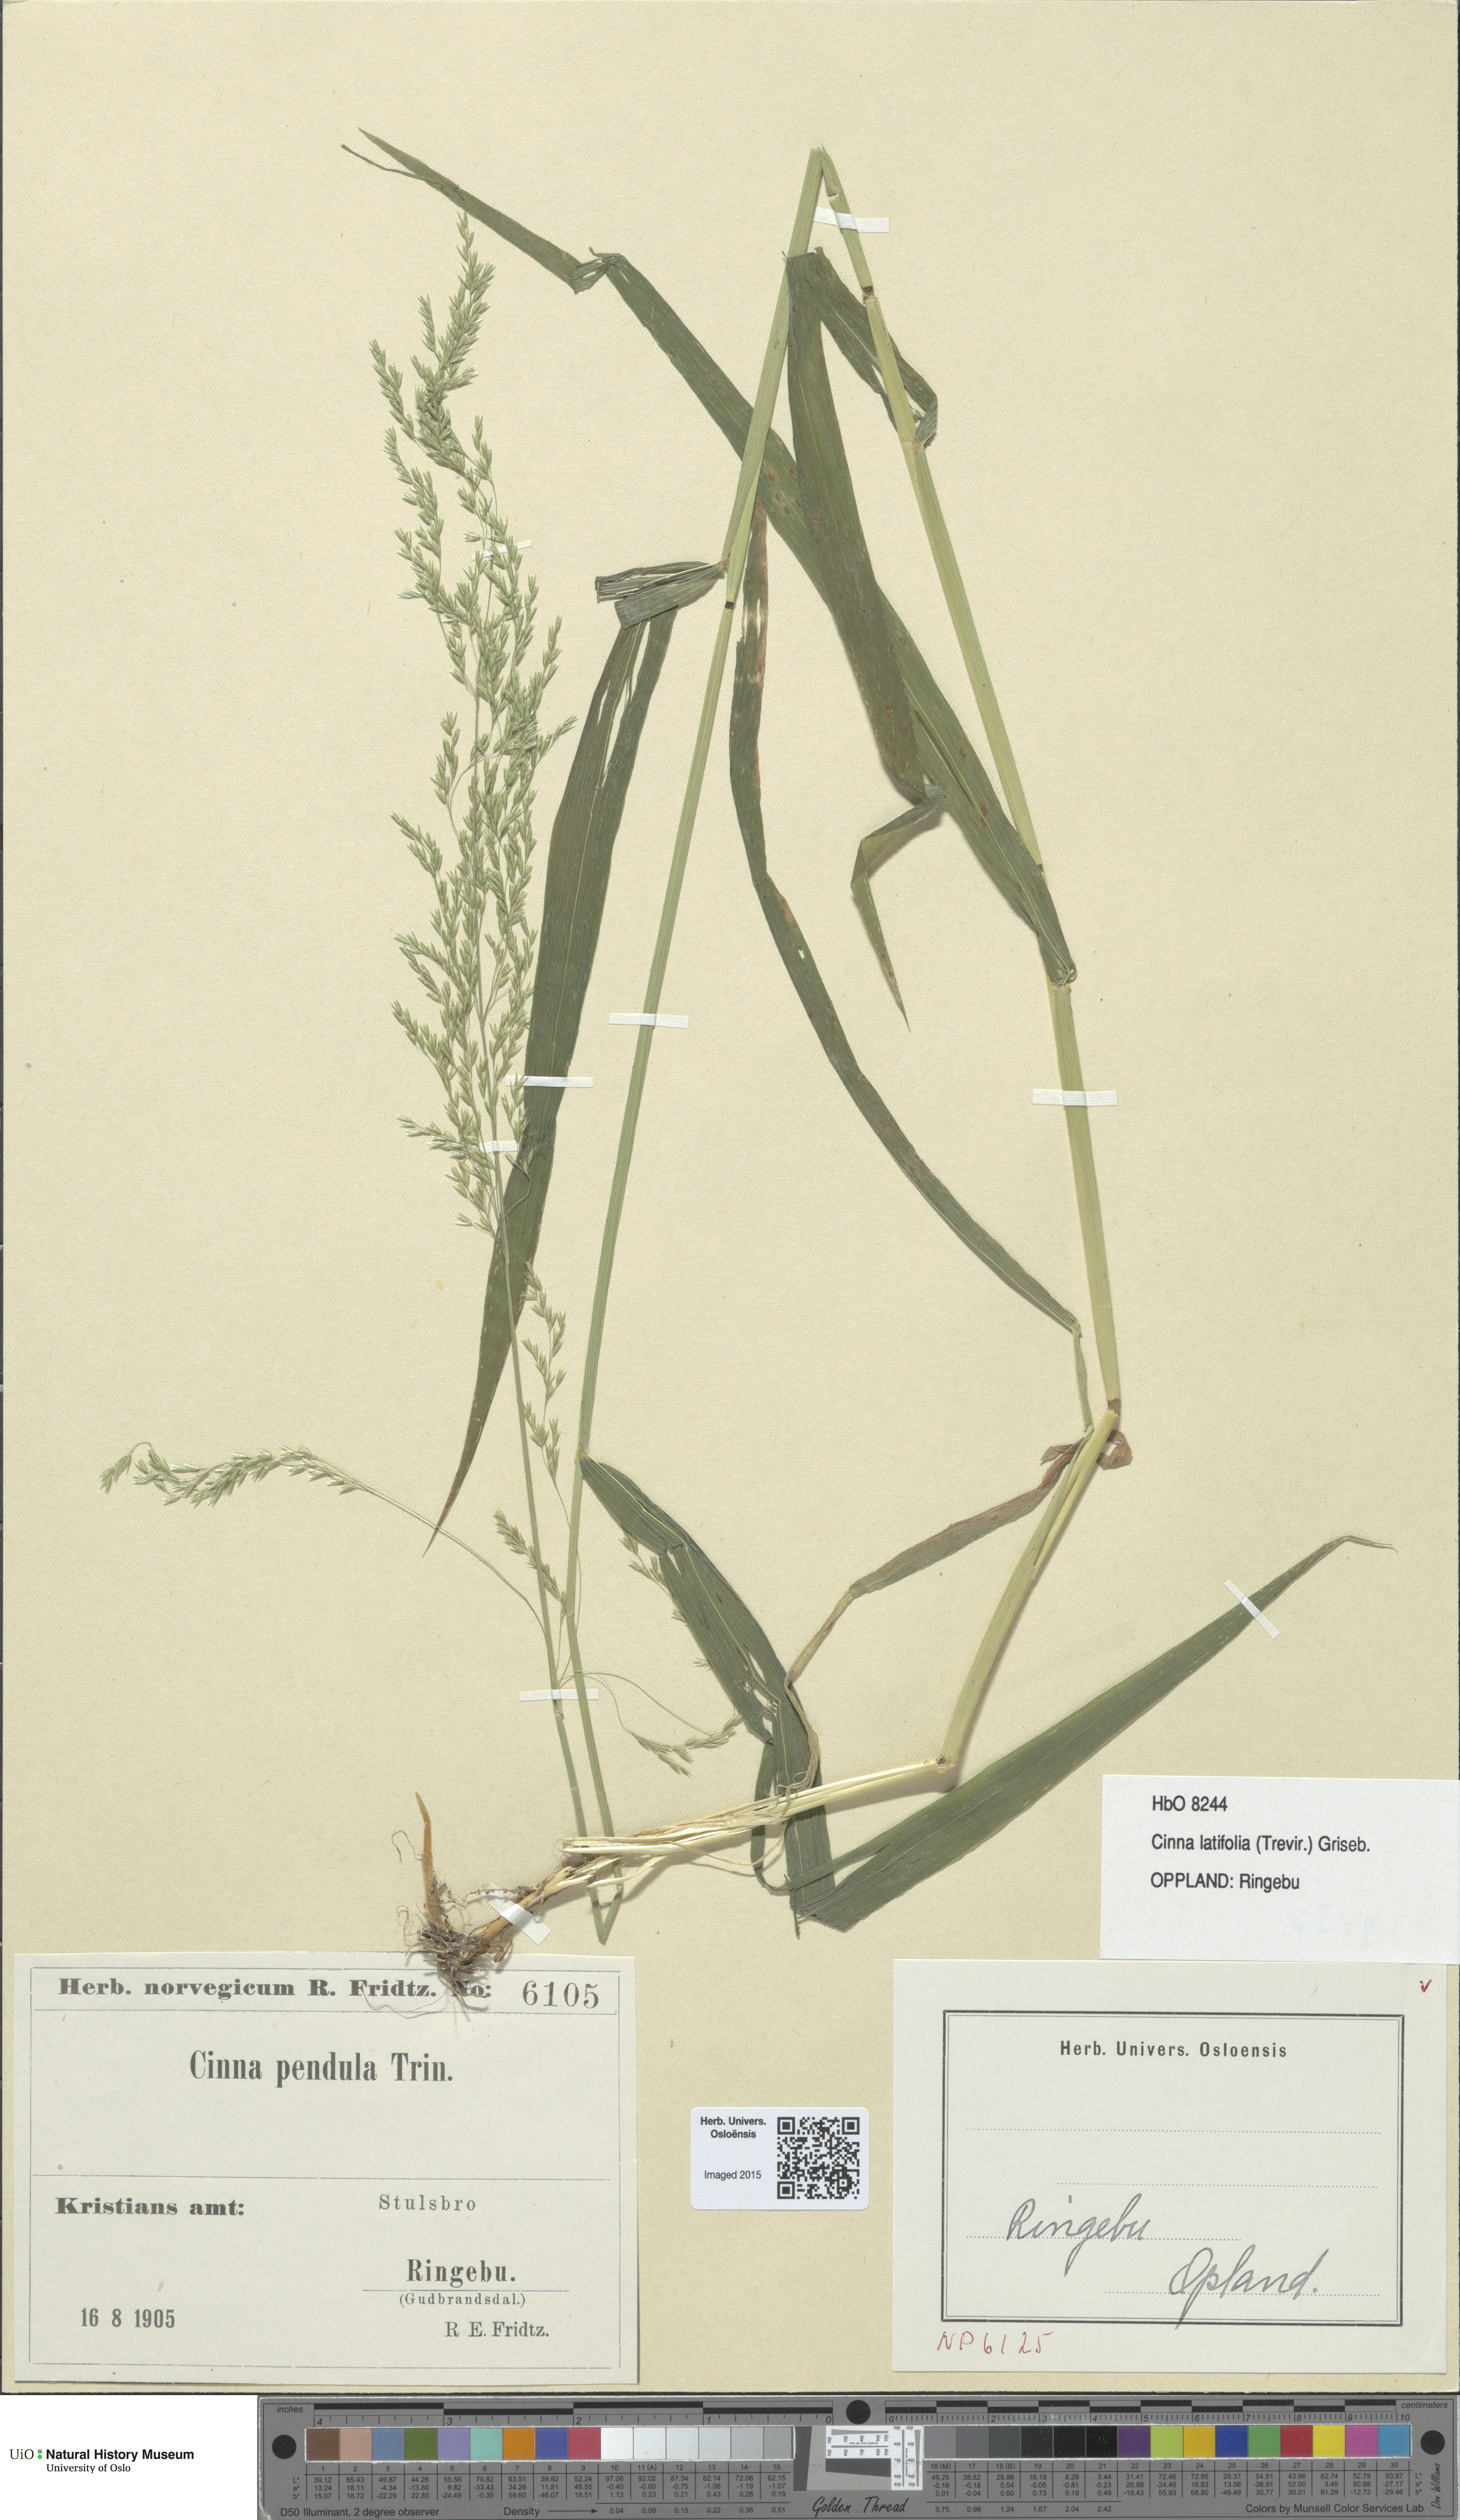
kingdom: Plantae
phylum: Tracheophyta
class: Liliopsida
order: Poales
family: Poaceae
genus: Cinna
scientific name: Cinna latifolia
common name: Drooping woodreed
